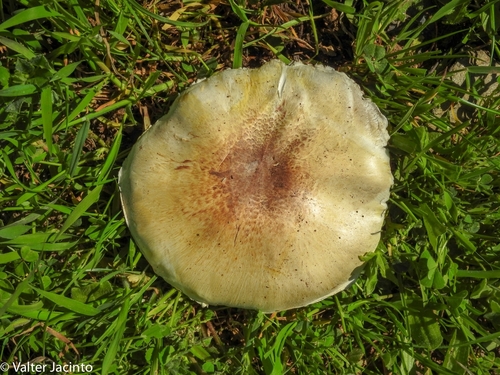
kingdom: Fungi
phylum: Basidiomycota
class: Agaricomycetes
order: Agaricales
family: Agaricaceae
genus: Agaricus
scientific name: Agaricus xanthodermus
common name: Yellow stainer
